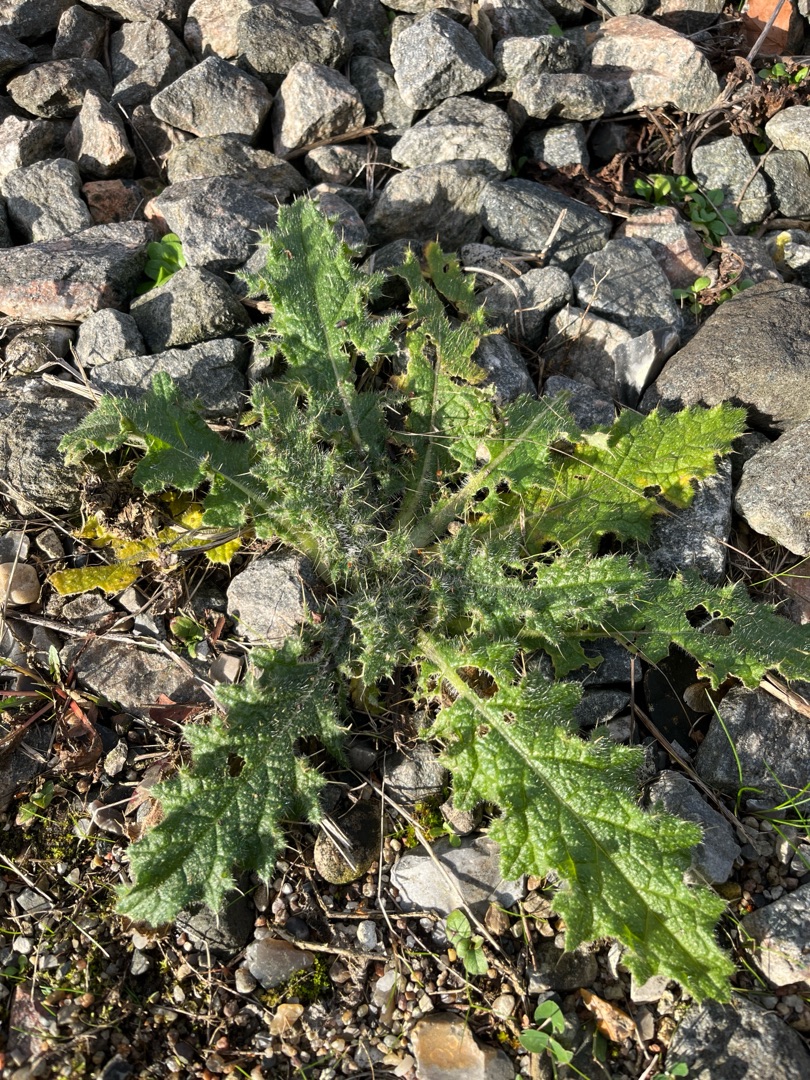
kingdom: Plantae
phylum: Tracheophyta
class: Magnoliopsida
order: Asterales
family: Asteraceae
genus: Cirsium
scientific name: Cirsium vulgare
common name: Horse-tidsel
